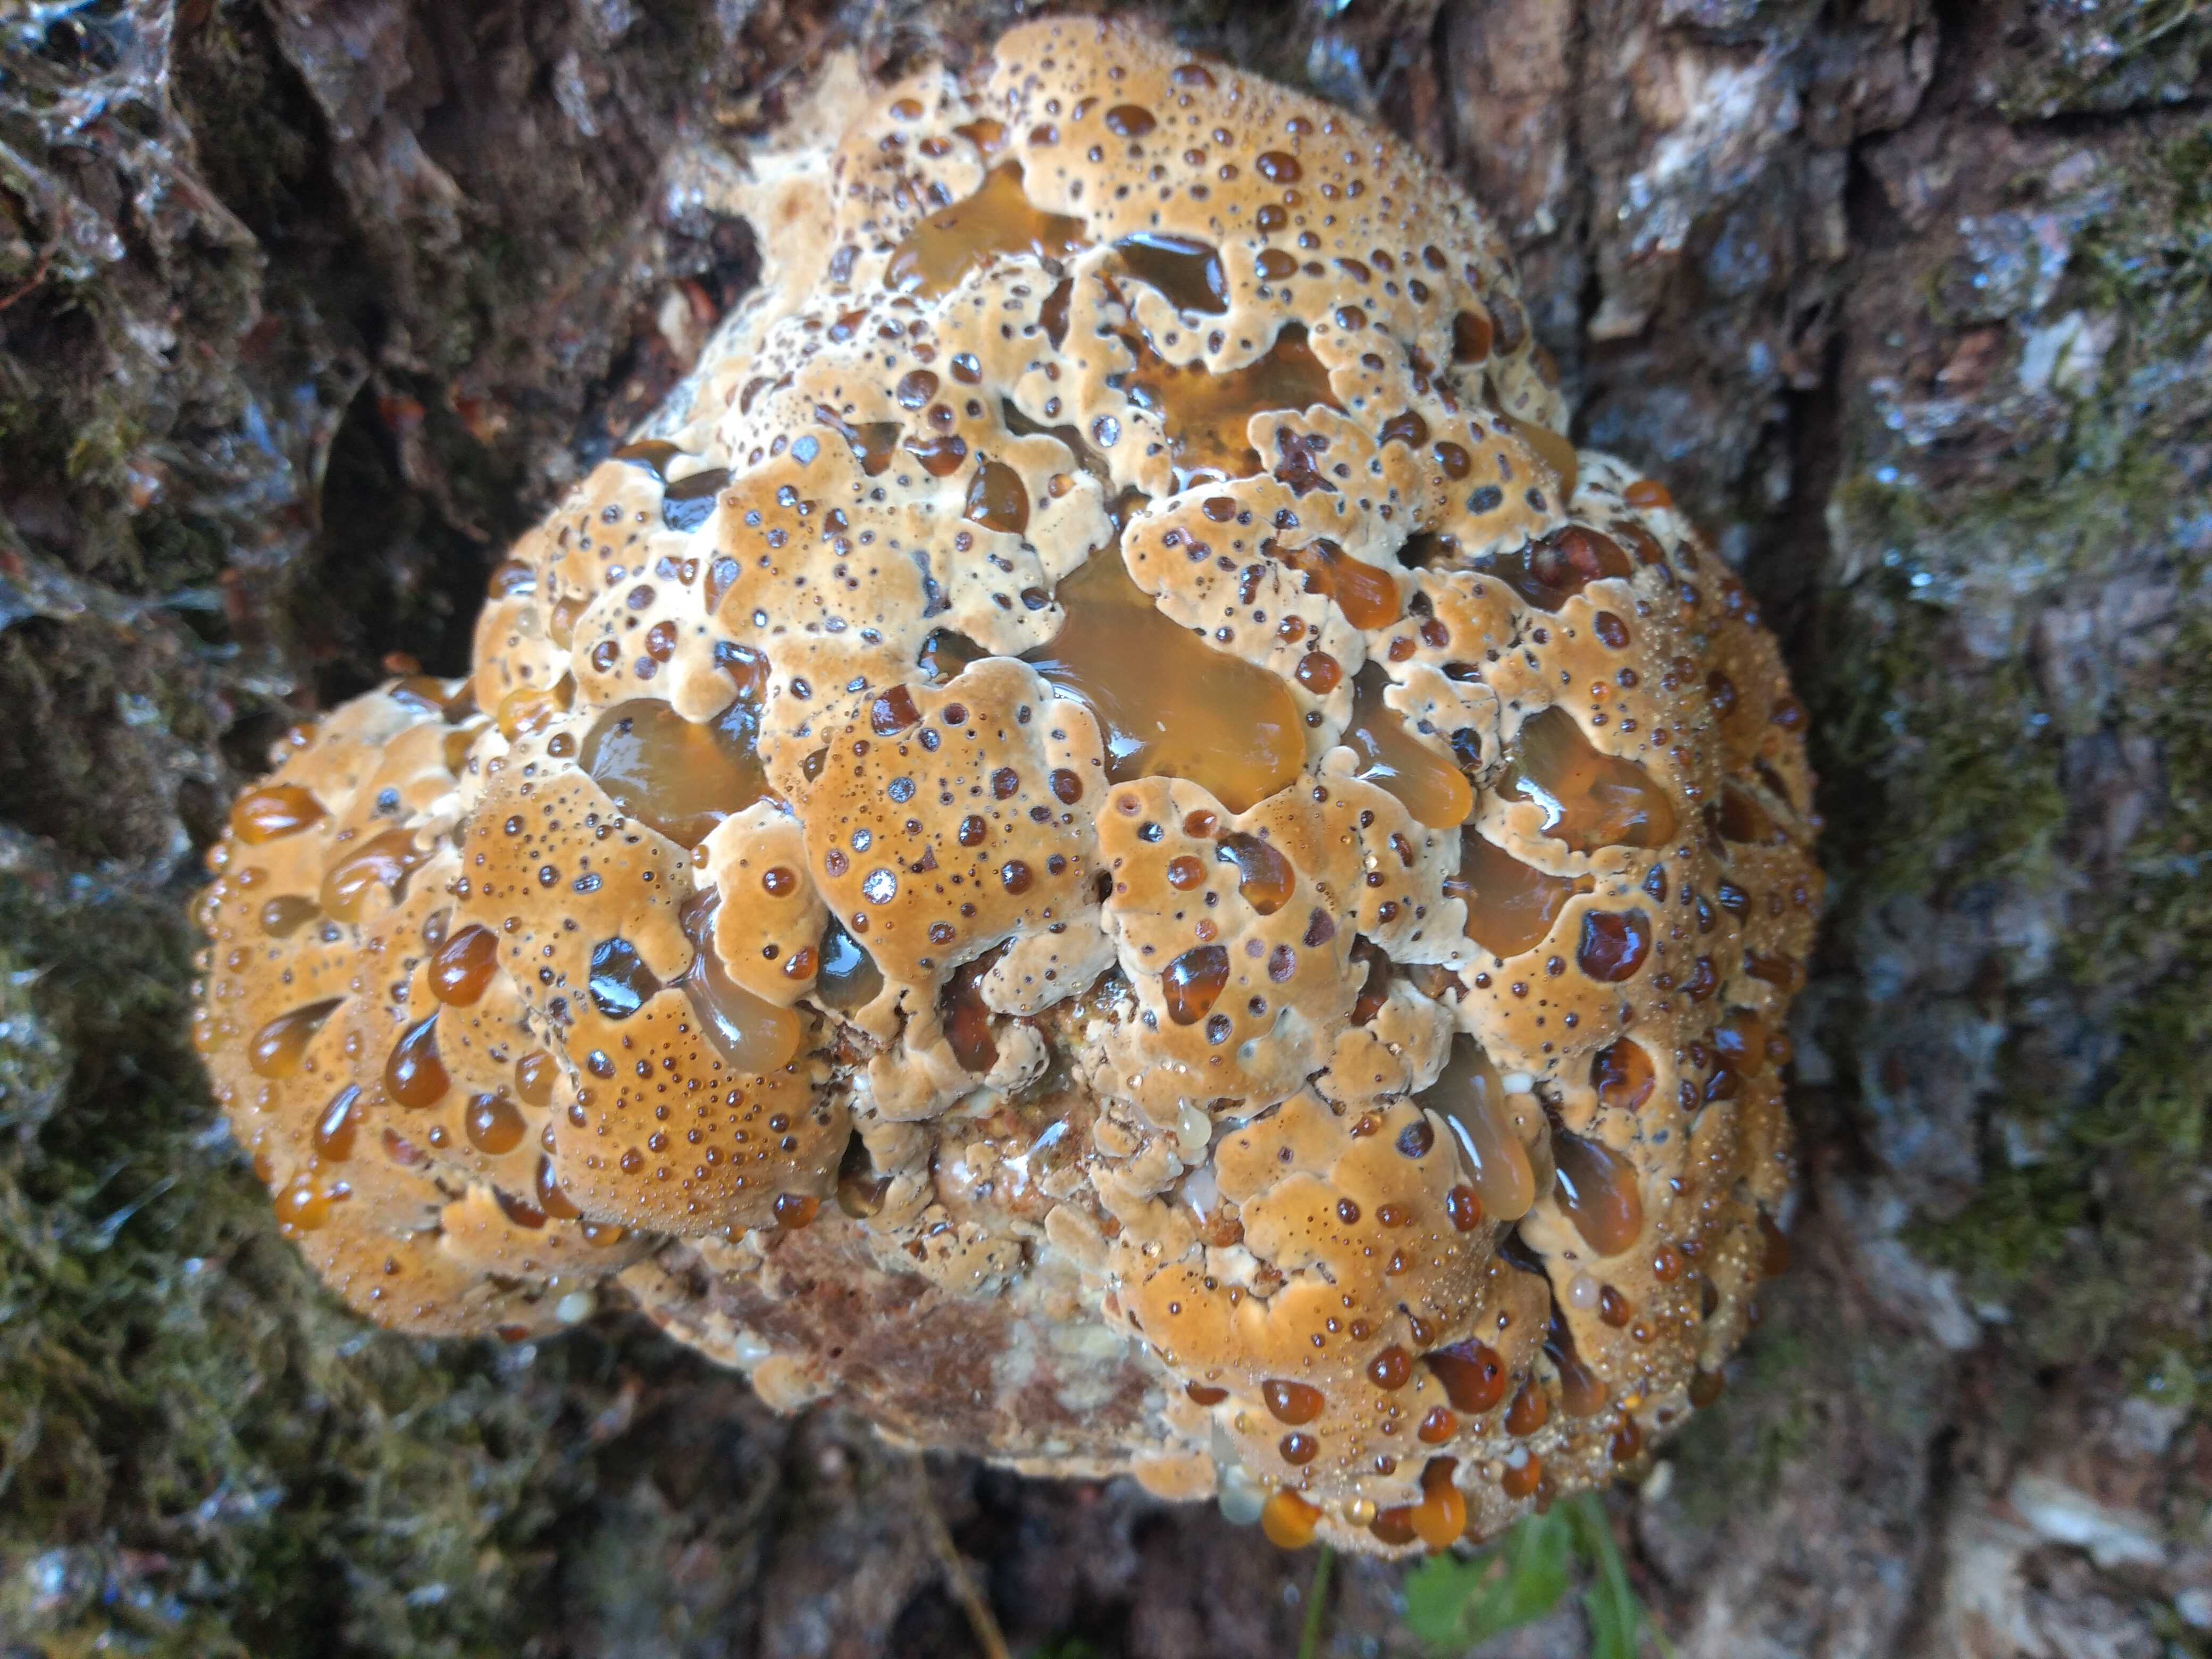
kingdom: Fungi
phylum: Basidiomycota
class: Agaricomycetes
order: Hymenochaetales
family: Hymenochaetaceae
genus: Pseudoinonotus
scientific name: Pseudoinonotus dryadeus
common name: ege-spejlporesvamp
